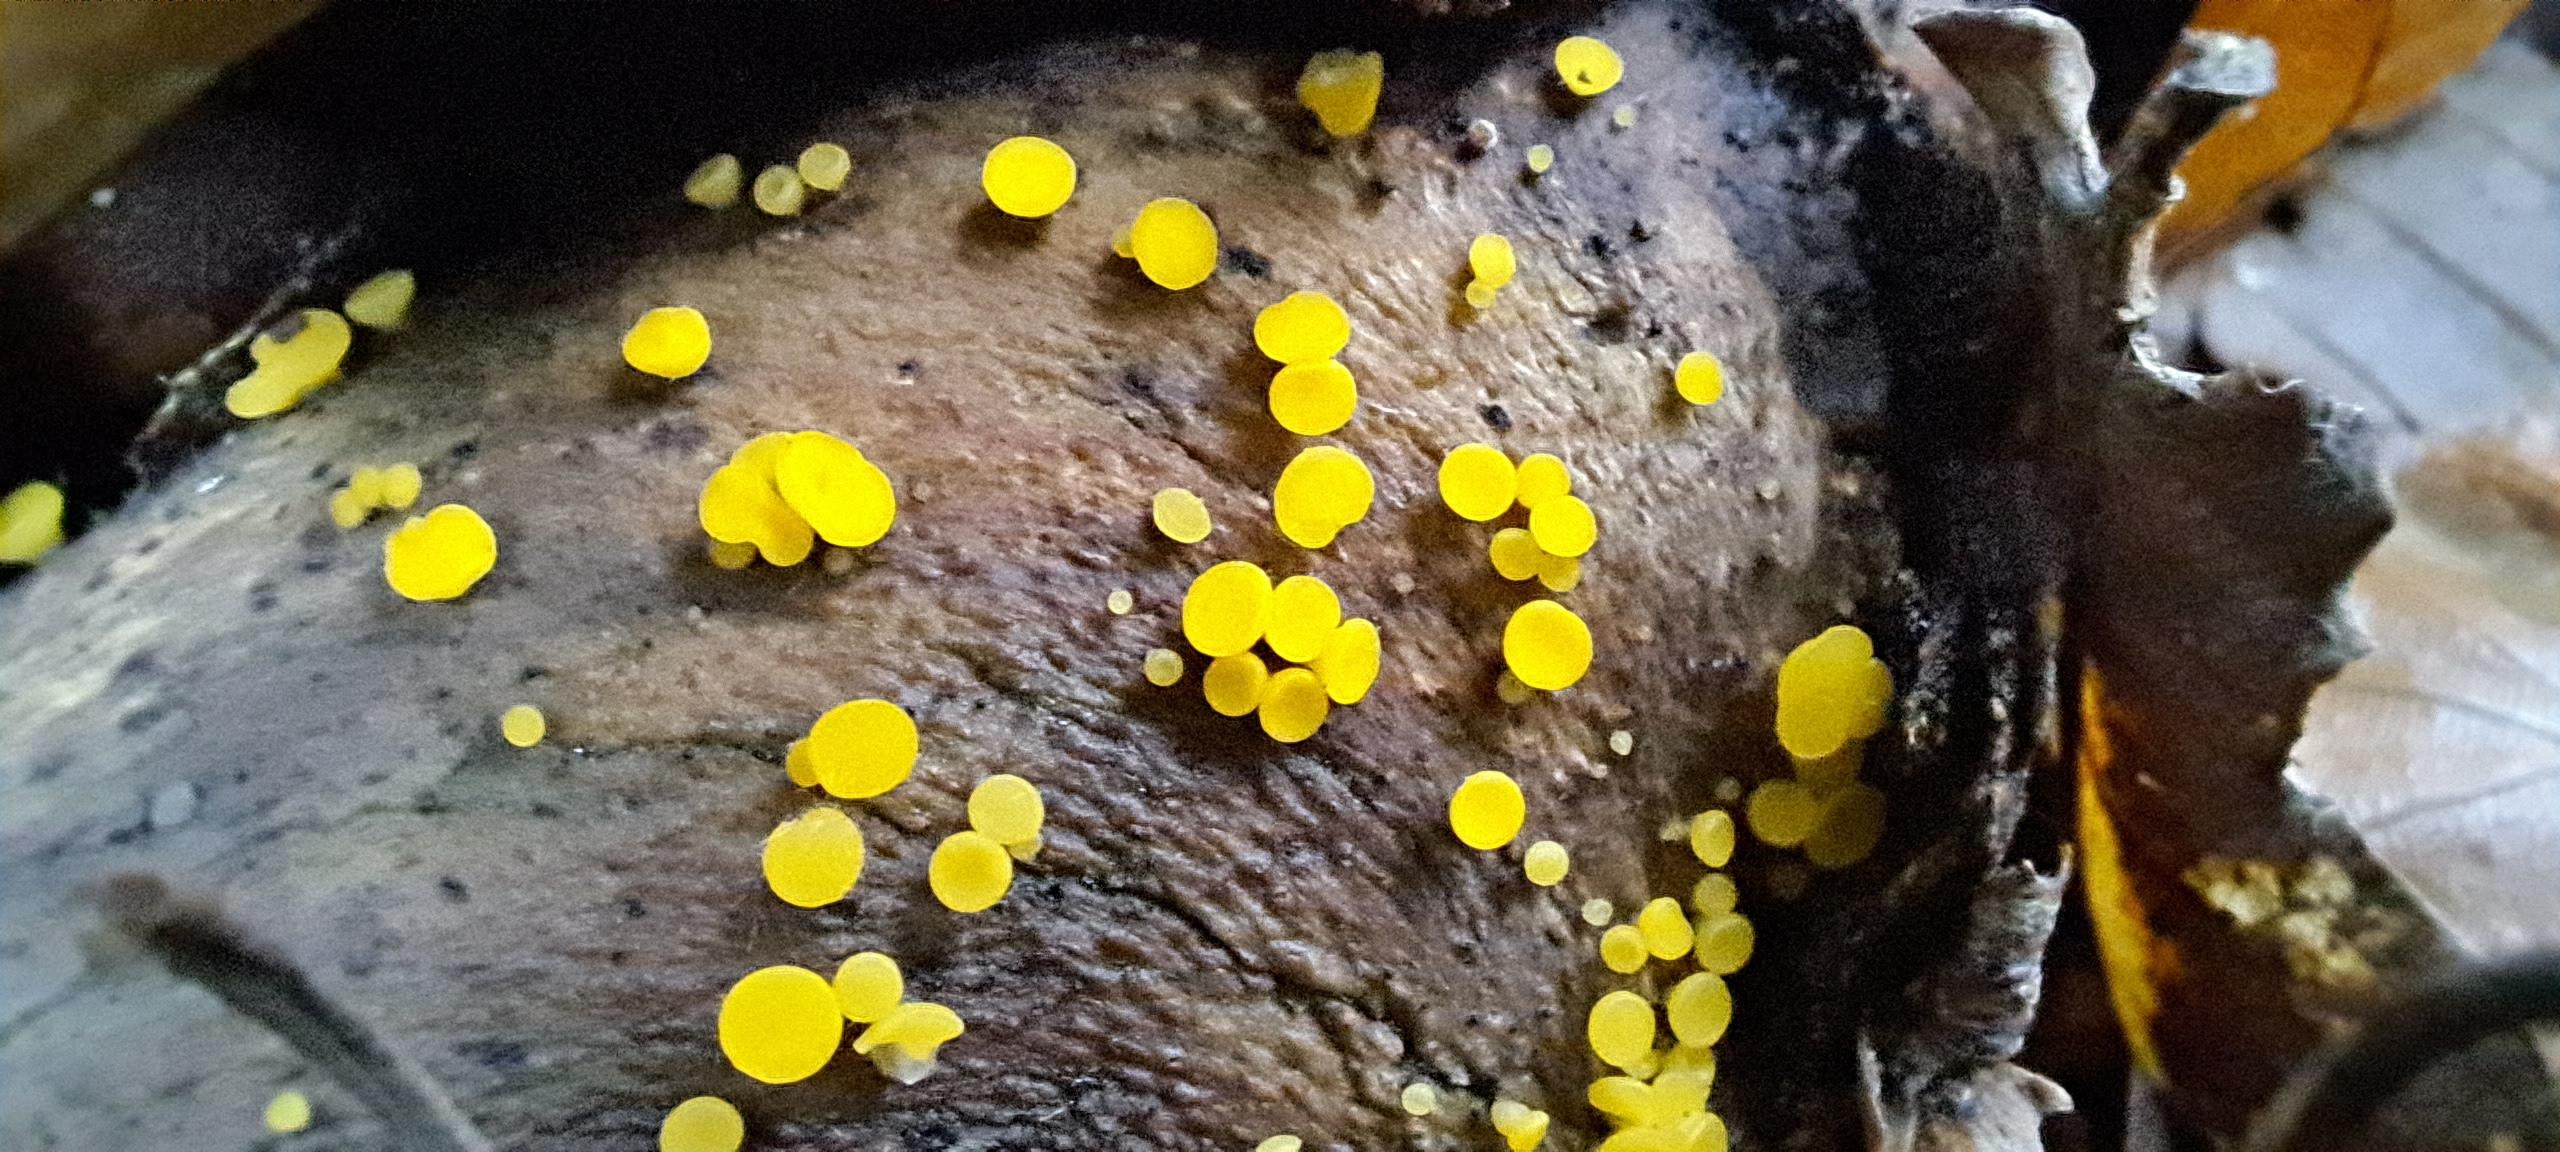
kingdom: Fungi
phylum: Ascomycota
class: Leotiomycetes
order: Helotiales
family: Pezizellaceae
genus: Calycina
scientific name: Calycina citrina
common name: almindelig gulskive
